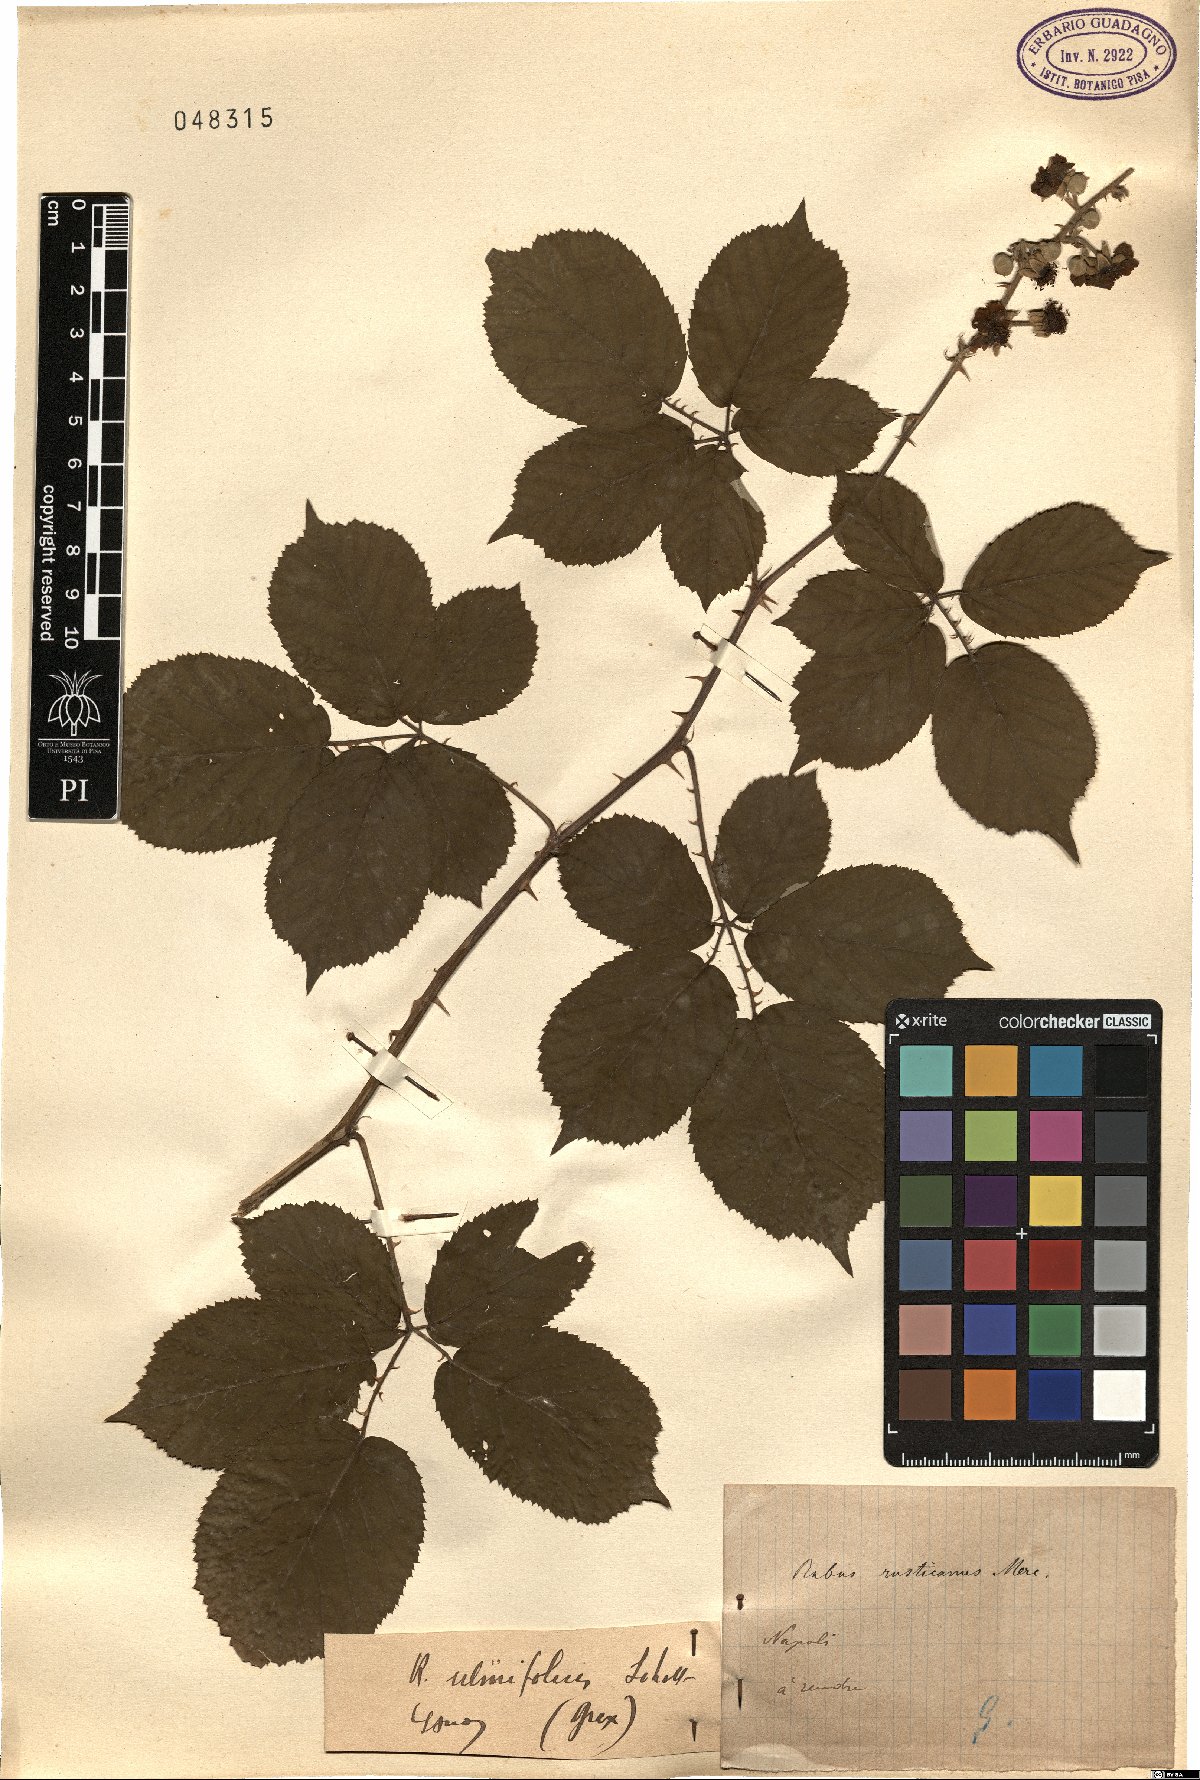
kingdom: Plantae
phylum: Tracheophyta
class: Magnoliopsida
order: Rosales
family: Rosaceae
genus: Rubus
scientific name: Rubus ulmifolius
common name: Elmleaf blackberry
